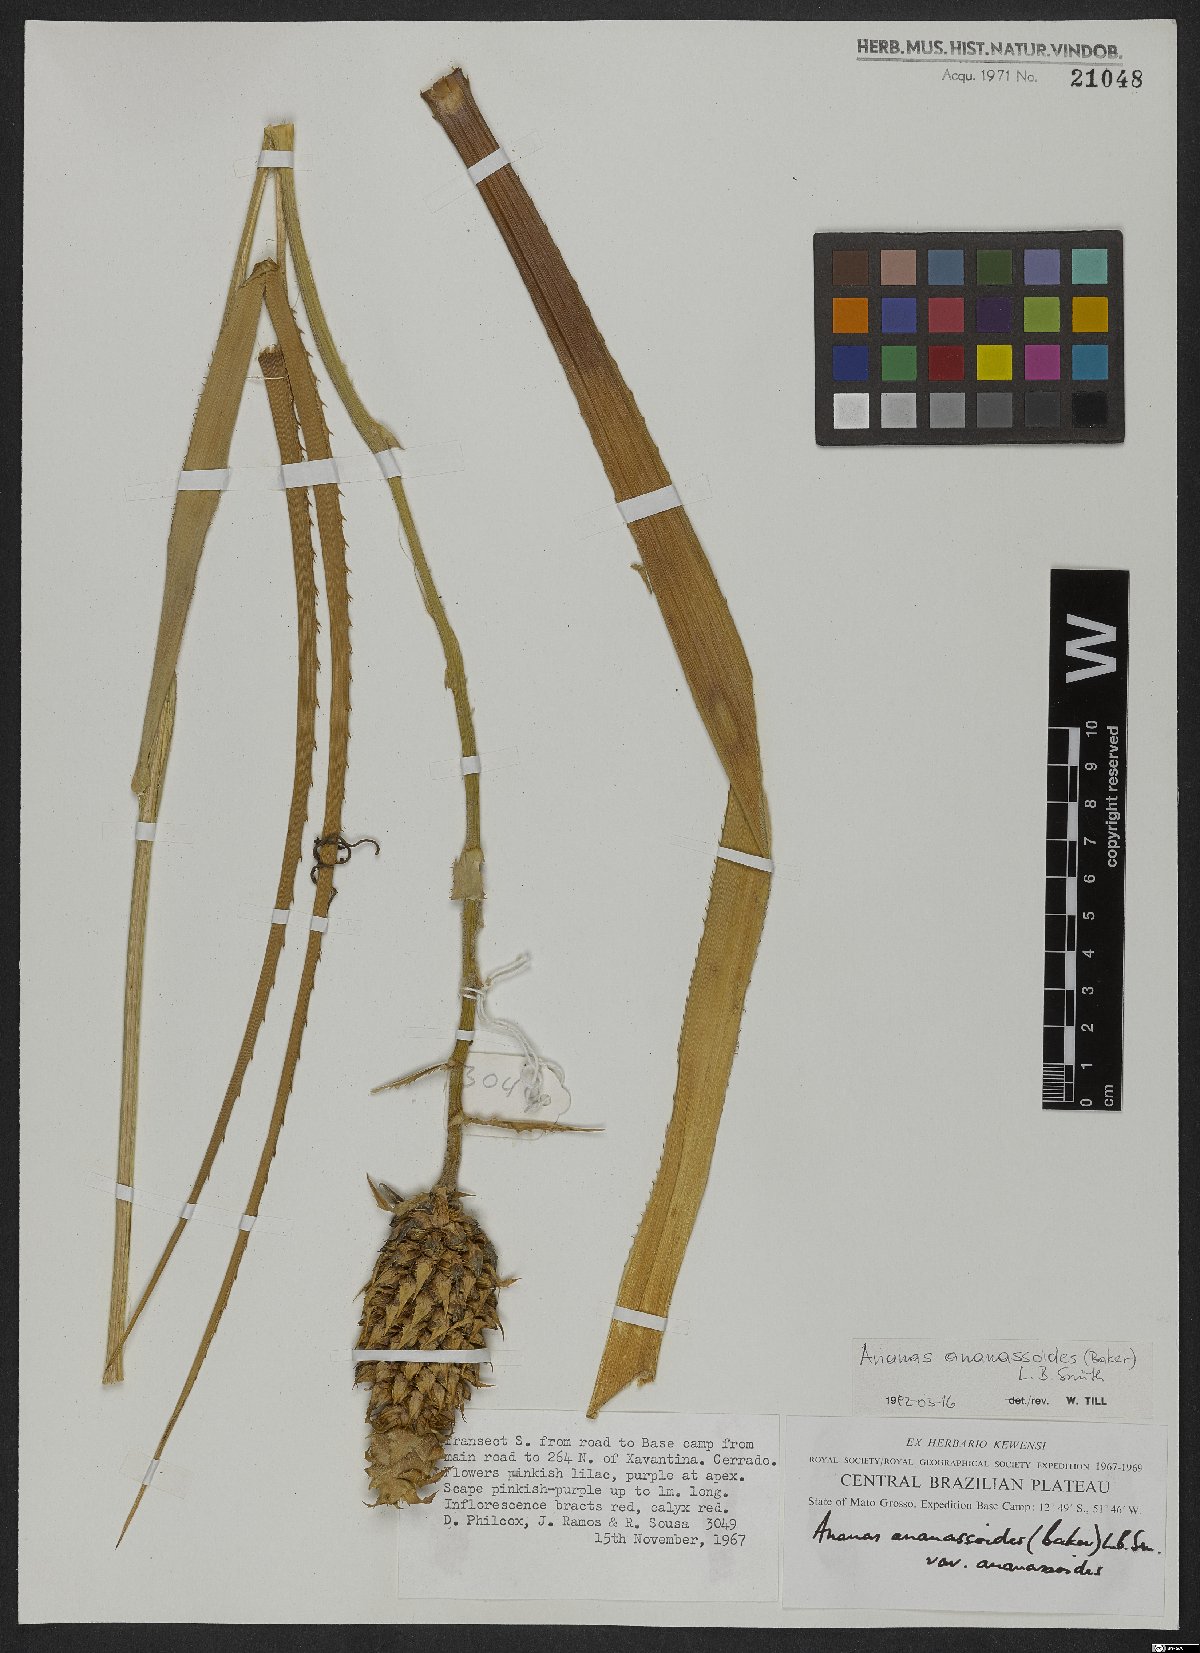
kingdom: Plantae
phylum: Tracheophyta
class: Liliopsida
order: Poales
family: Bromeliaceae
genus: Ananas
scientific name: Ananas comosus
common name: Pineapple
